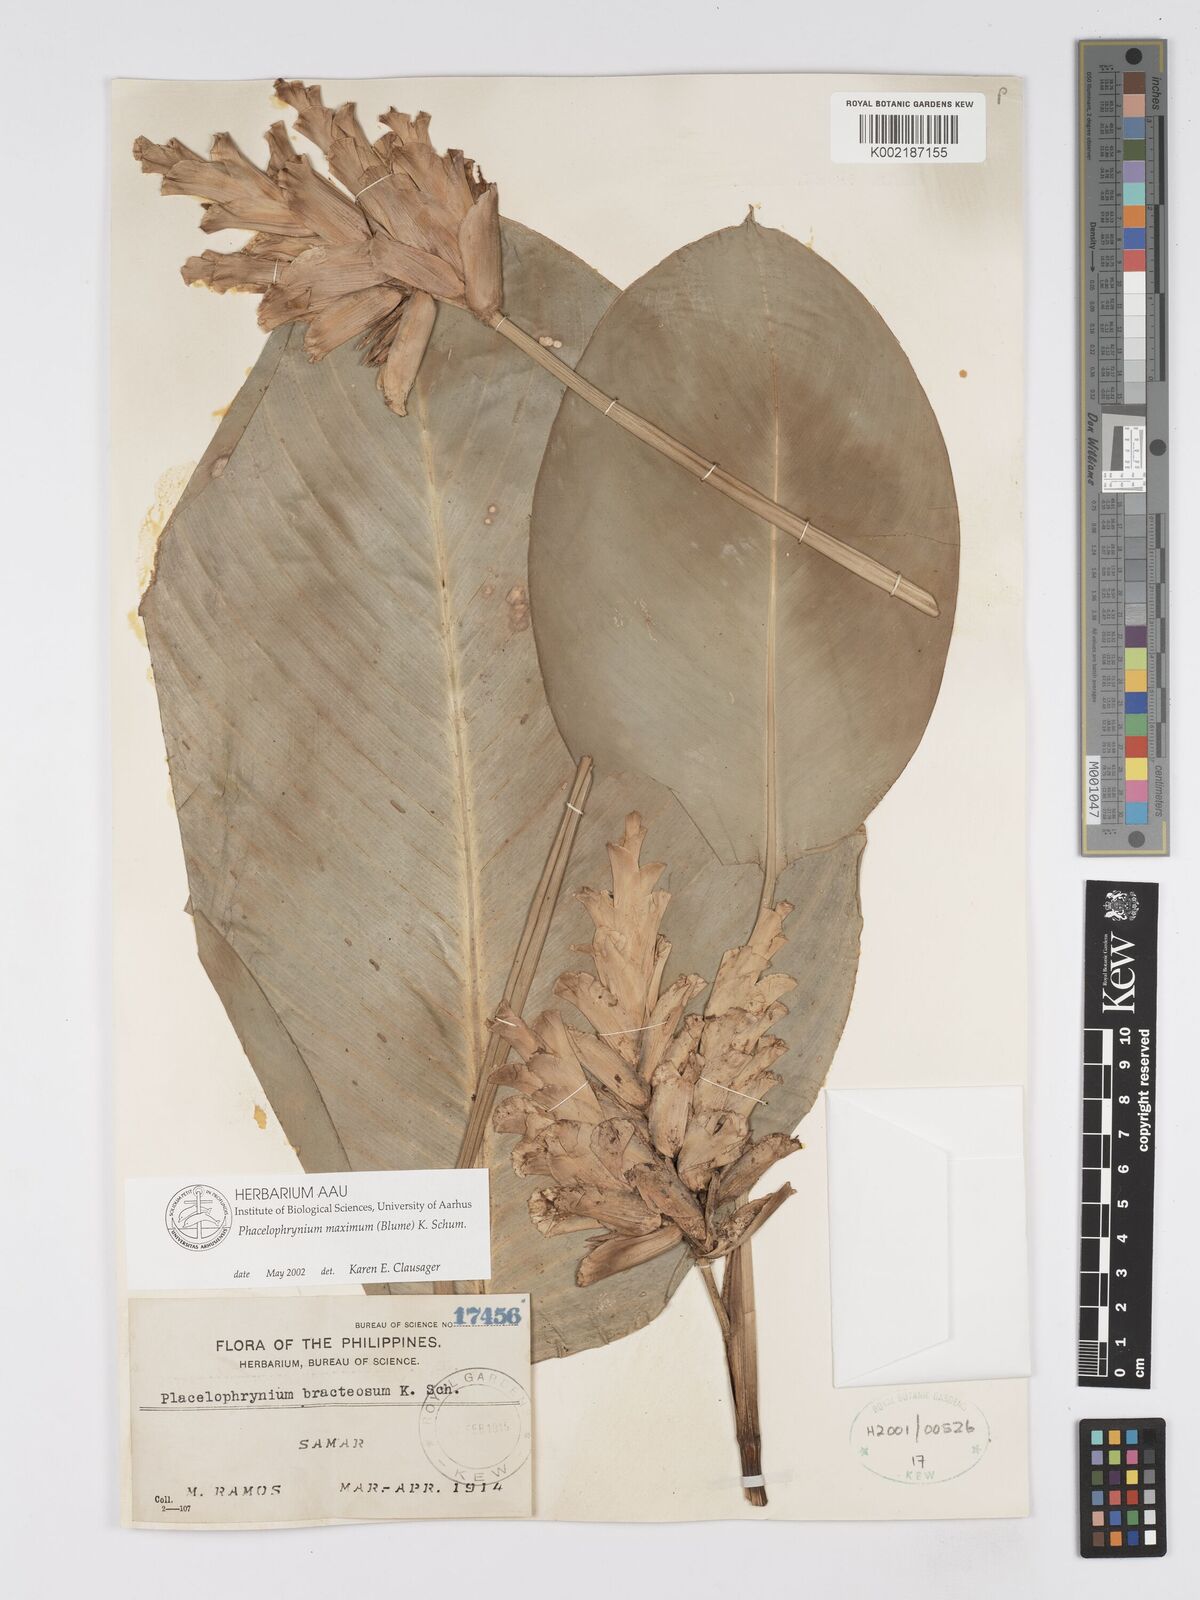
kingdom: Plantae
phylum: Tracheophyta
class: Liliopsida
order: Zingiberales
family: Marantaceae
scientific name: Marantaceae
